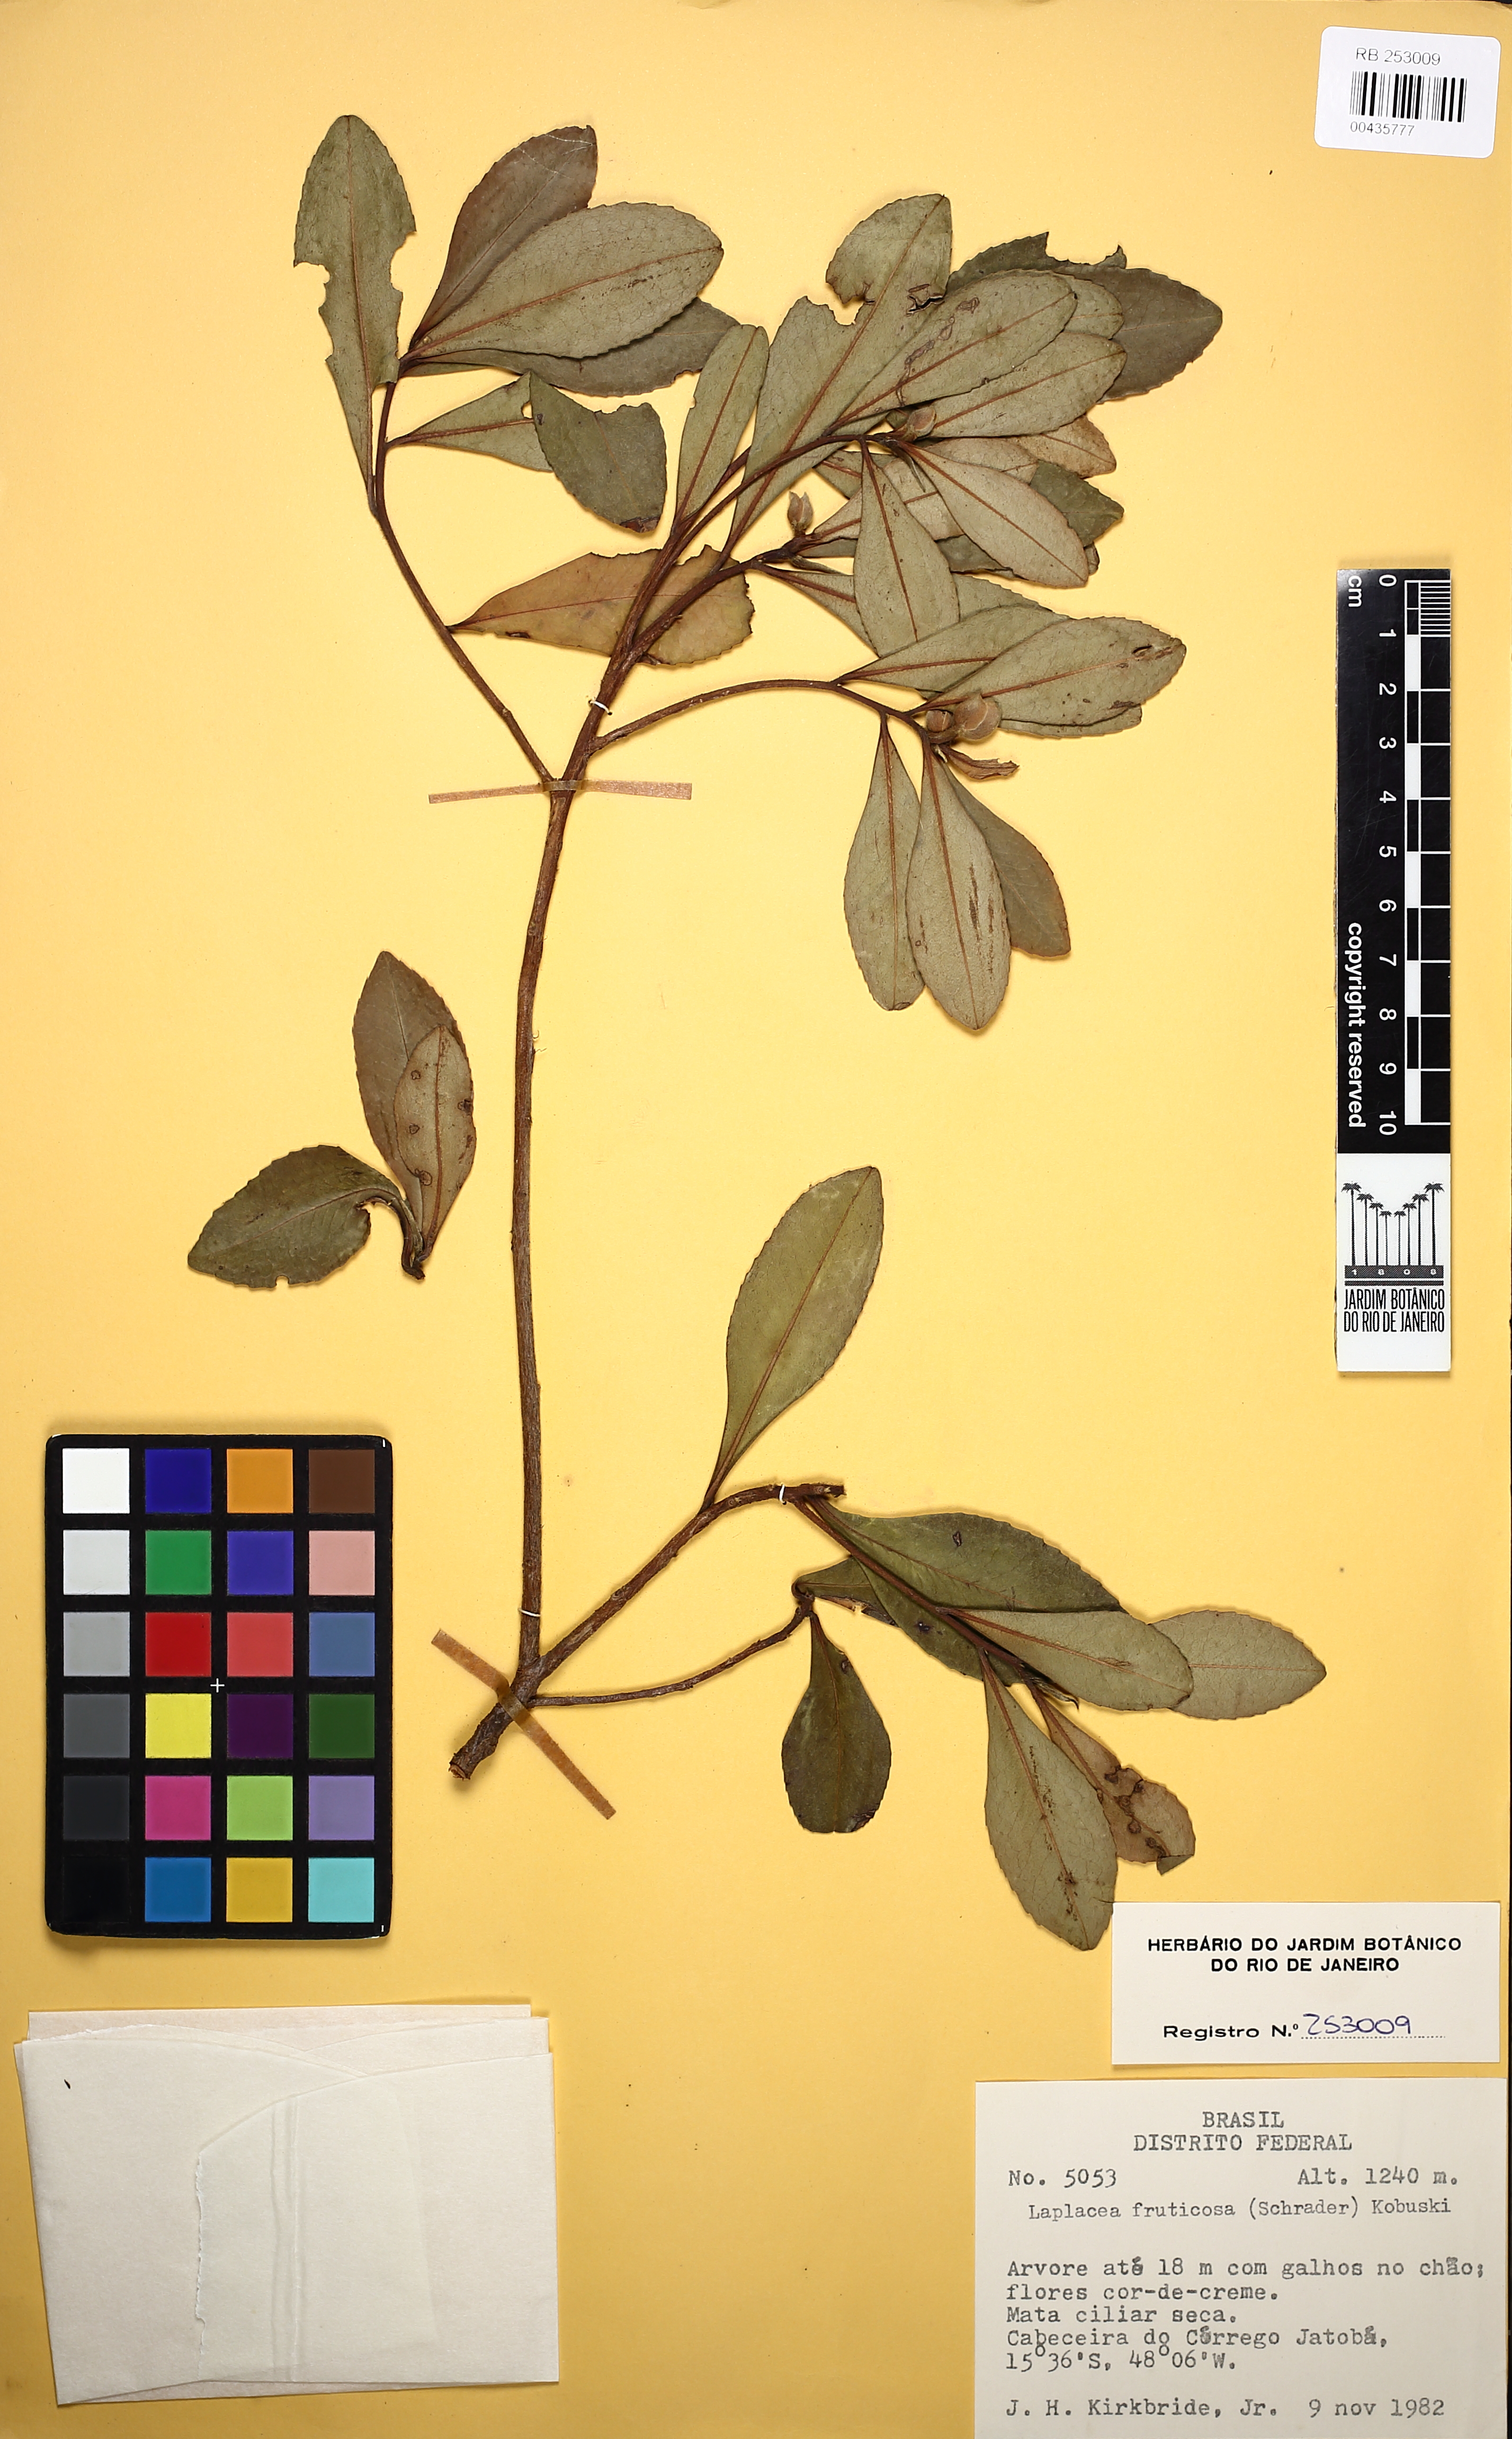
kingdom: Plantae
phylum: Tracheophyta
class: Magnoliopsida
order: Ericales
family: Theaceae
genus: Gordonia
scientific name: Gordonia fruticosa
